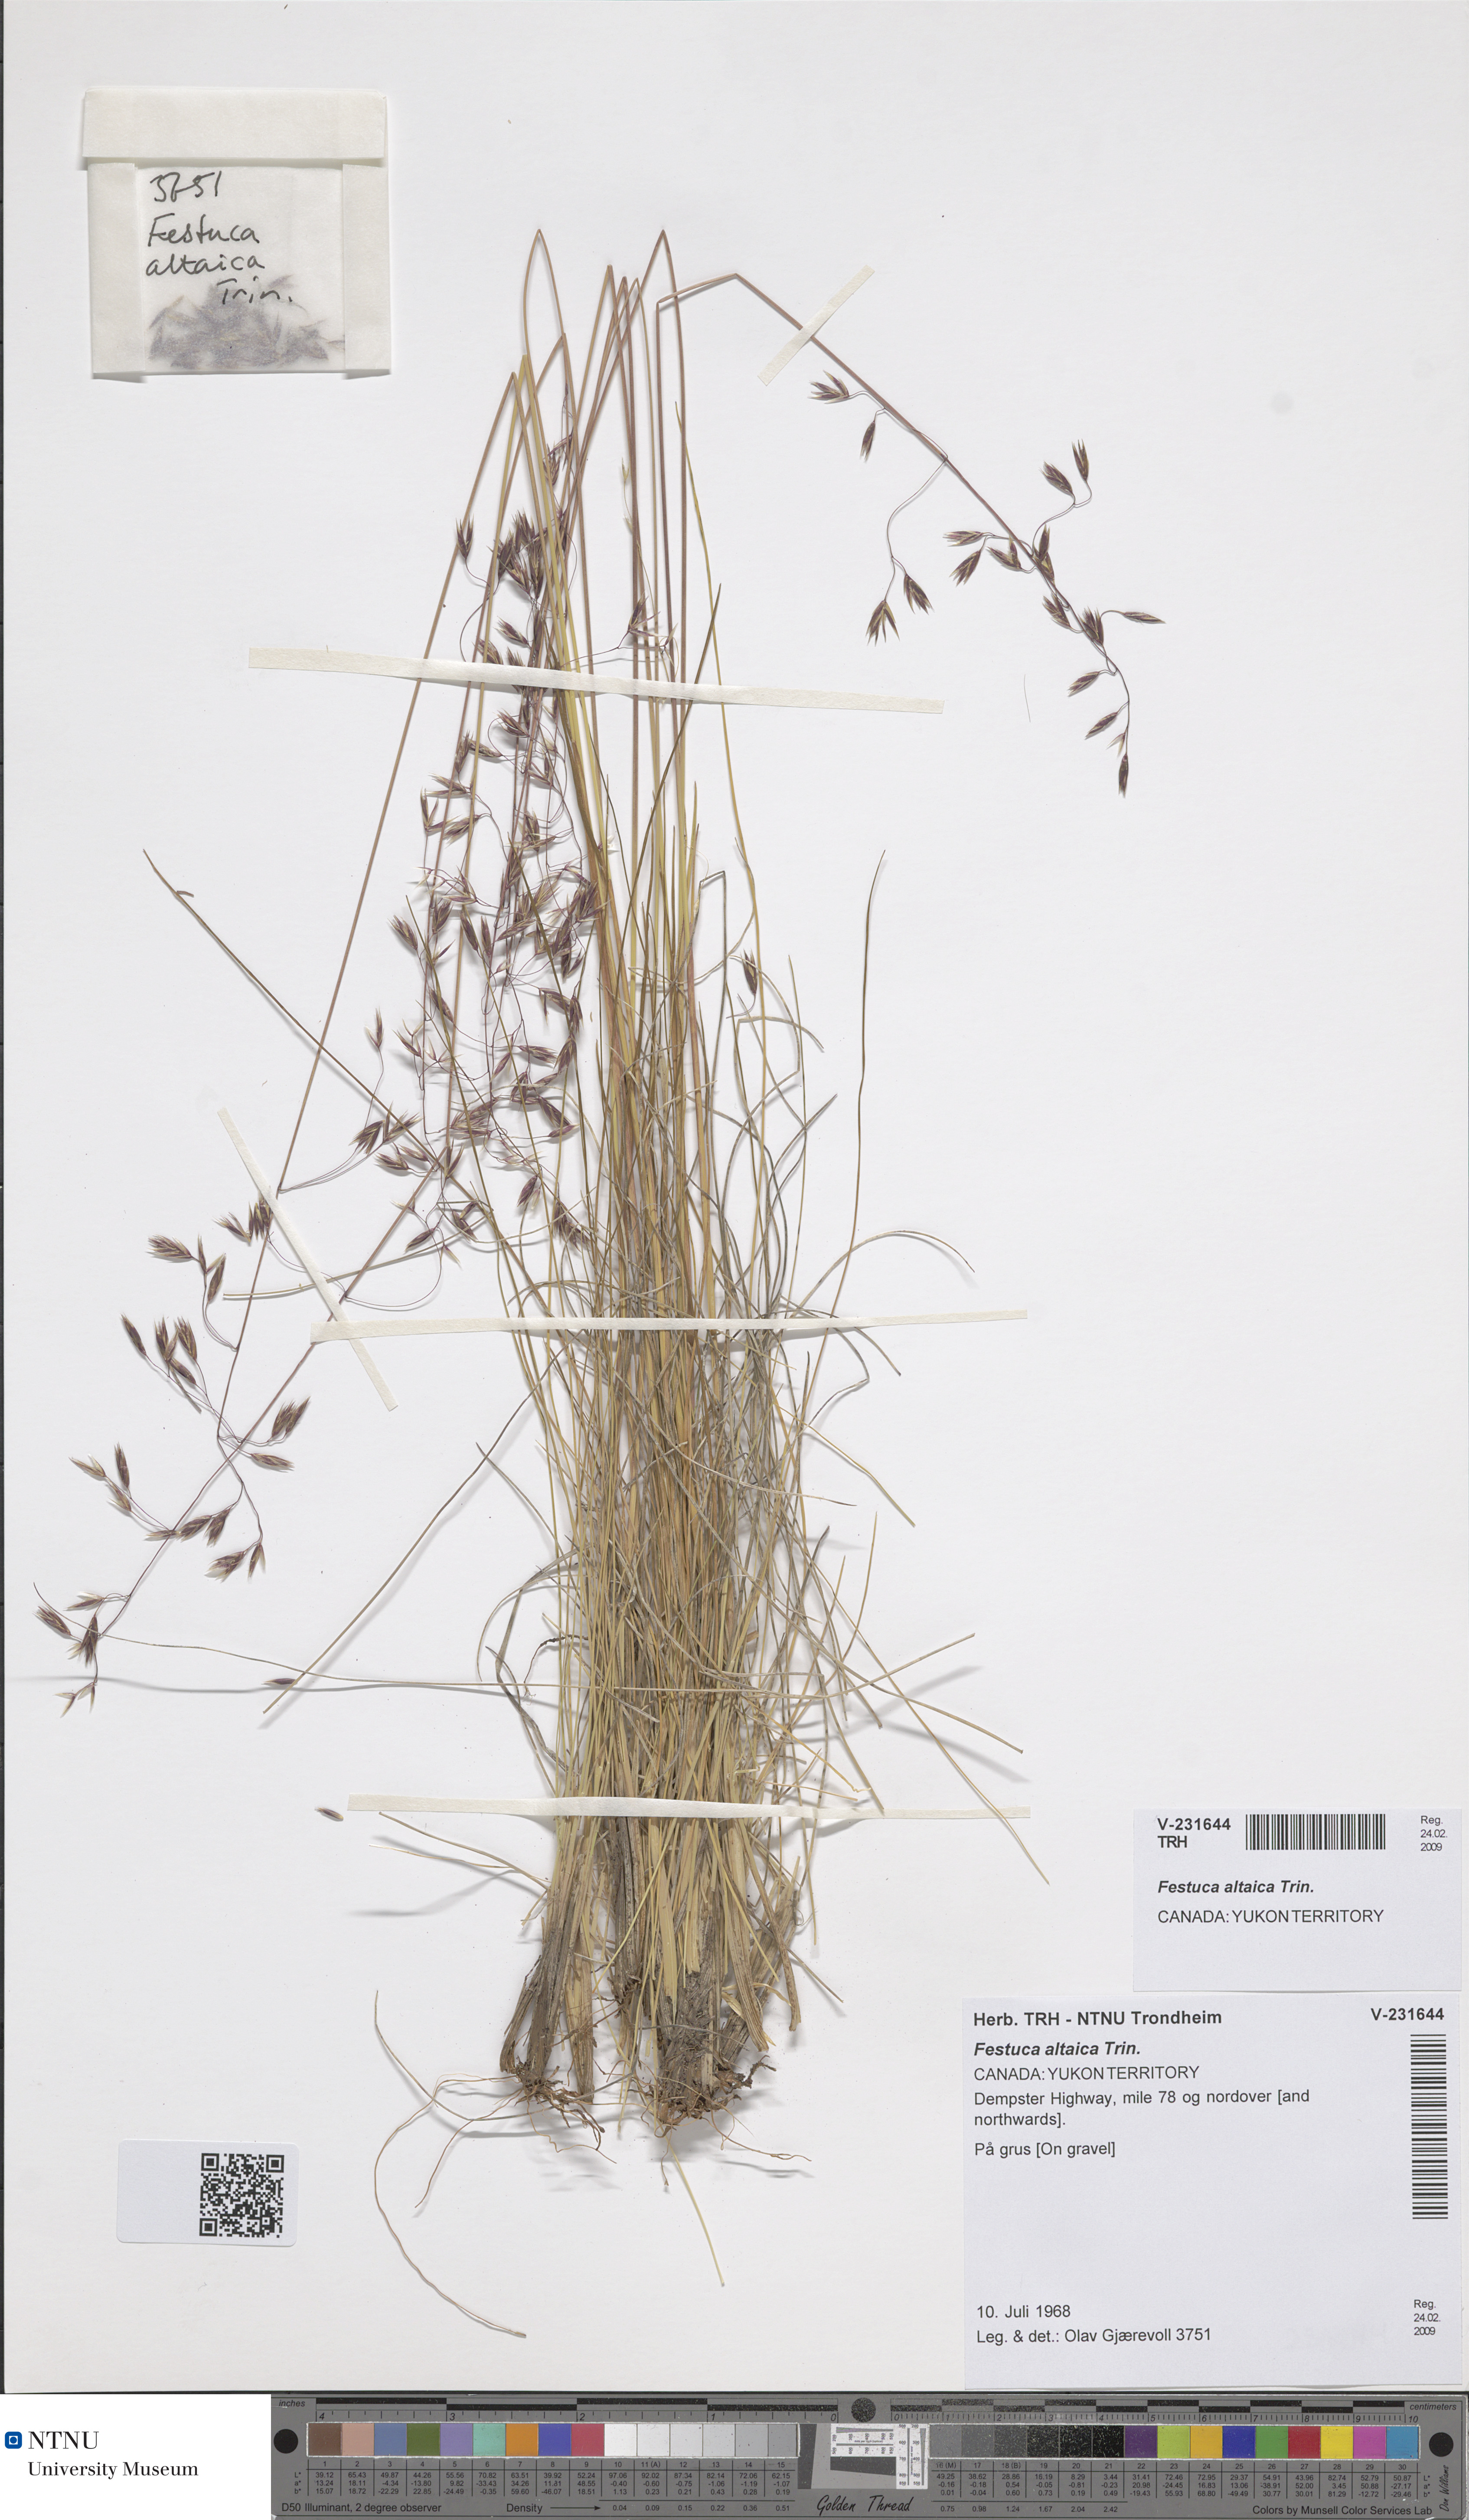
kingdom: Plantae
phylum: Tracheophyta
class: Liliopsida
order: Poales
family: Poaceae
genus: Festuca
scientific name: Festuca altaica
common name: Northern rough fescue
